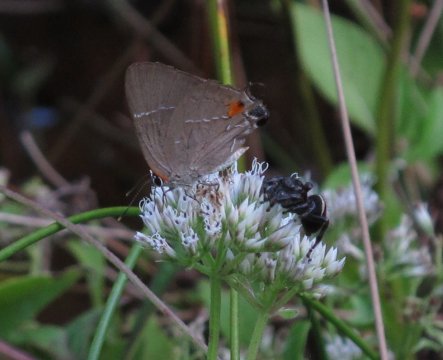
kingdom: Animalia
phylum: Arthropoda
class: Insecta
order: Lepidoptera
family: Lycaenidae
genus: Parrhasius
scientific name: Parrhasius m-album
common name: White-m Hairstreak
